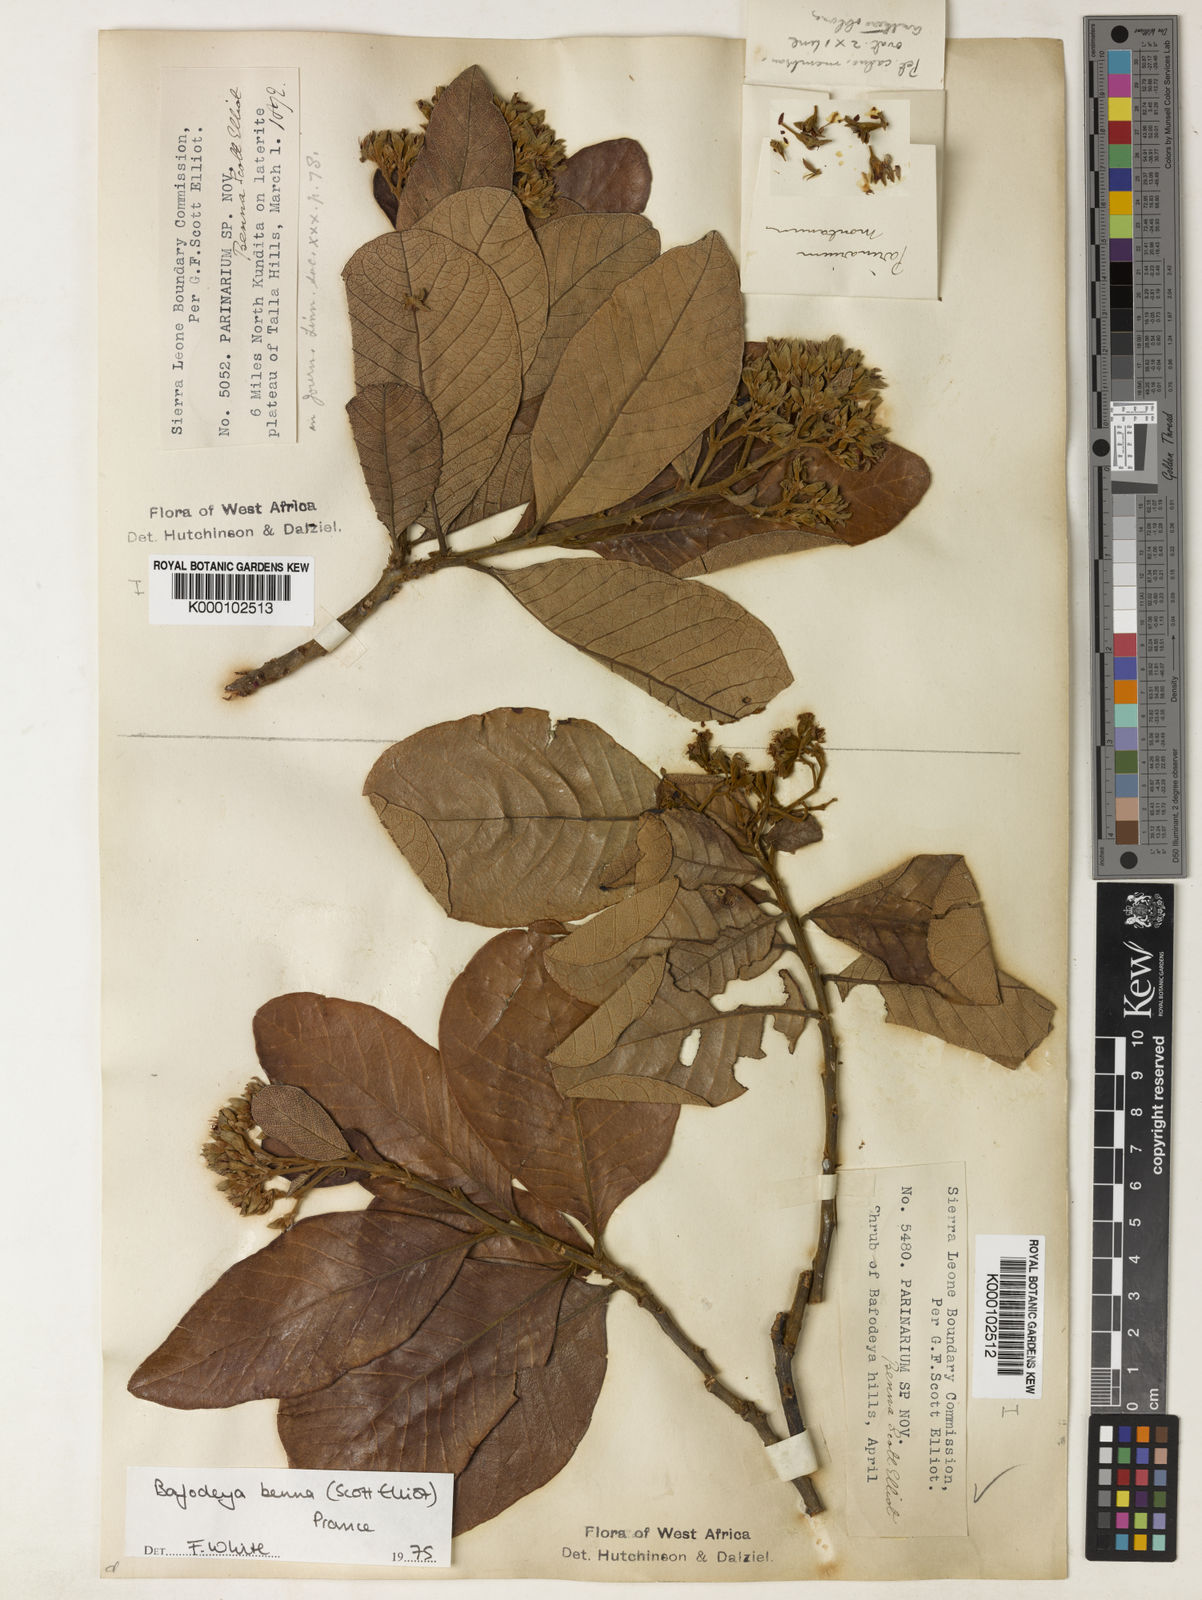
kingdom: Plantae
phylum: Tracheophyta
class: Magnoliopsida
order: Malpighiales
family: Chrysobalanaceae
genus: Bafodeya
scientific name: Bafodeya benna
